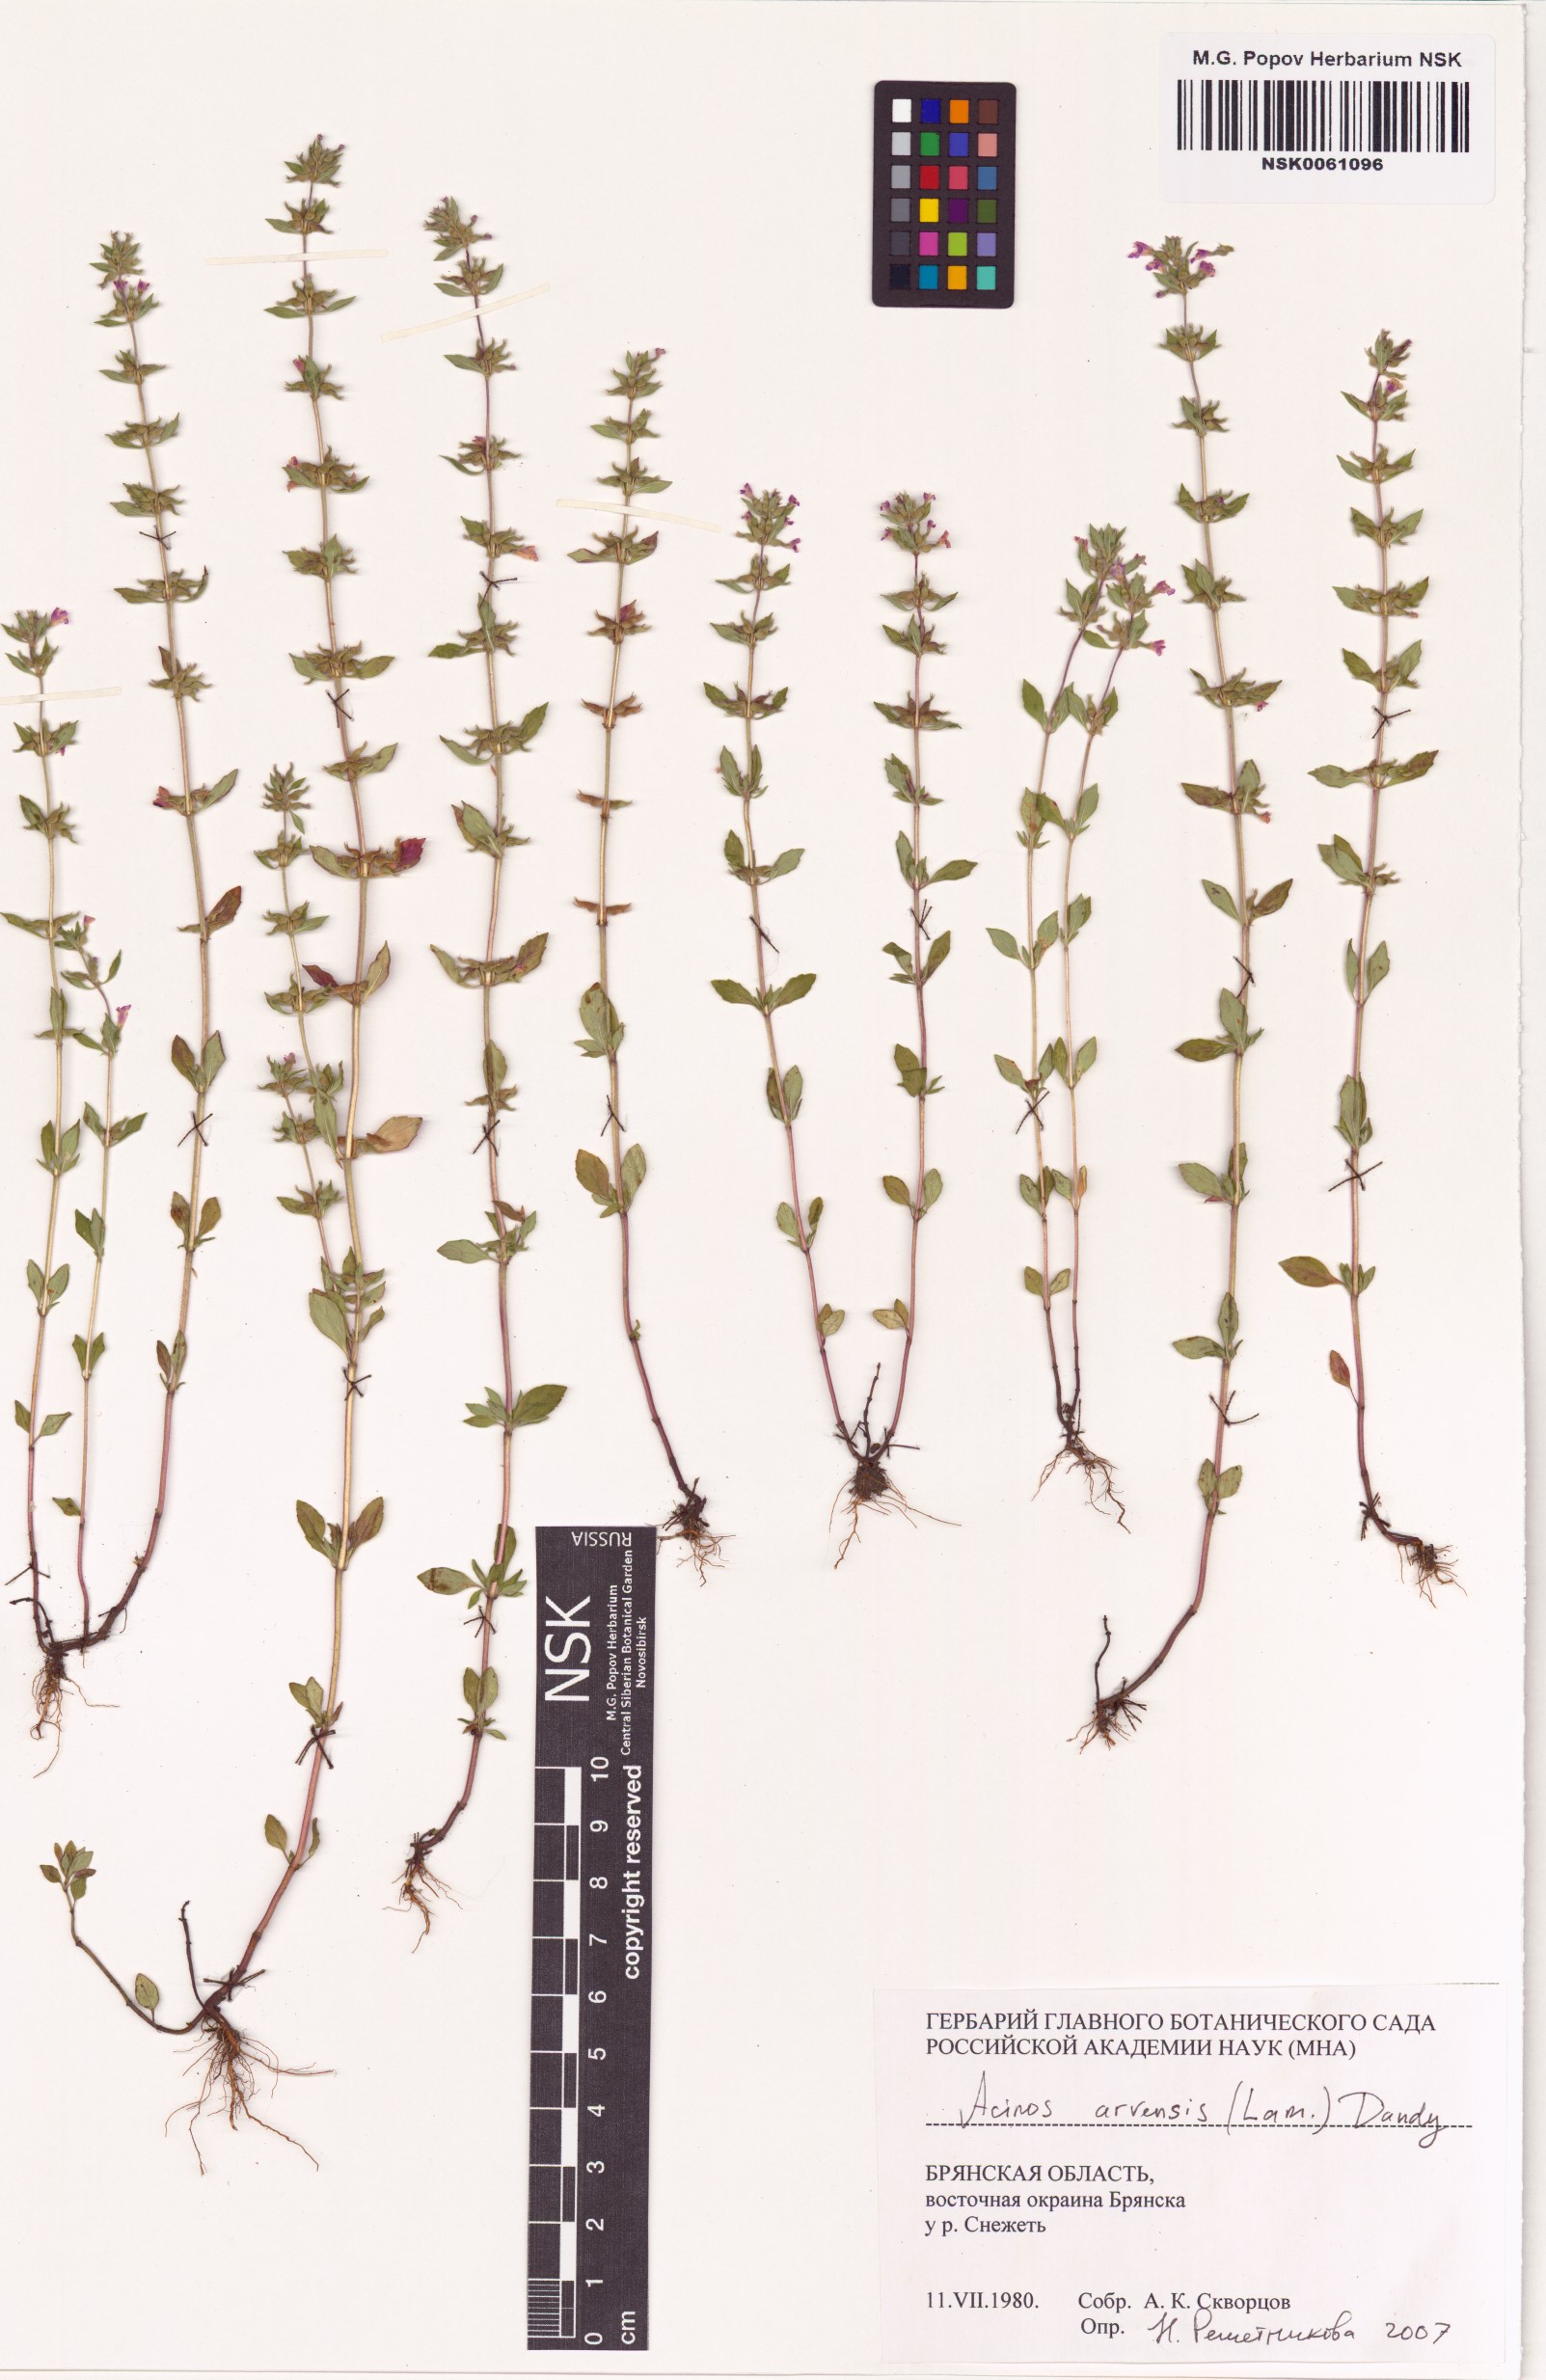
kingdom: Plantae
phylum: Tracheophyta
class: Magnoliopsida
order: Lamiales
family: Lamiaceae
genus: Clinopodium
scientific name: Clinopodium acinos
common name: Basil thyme
